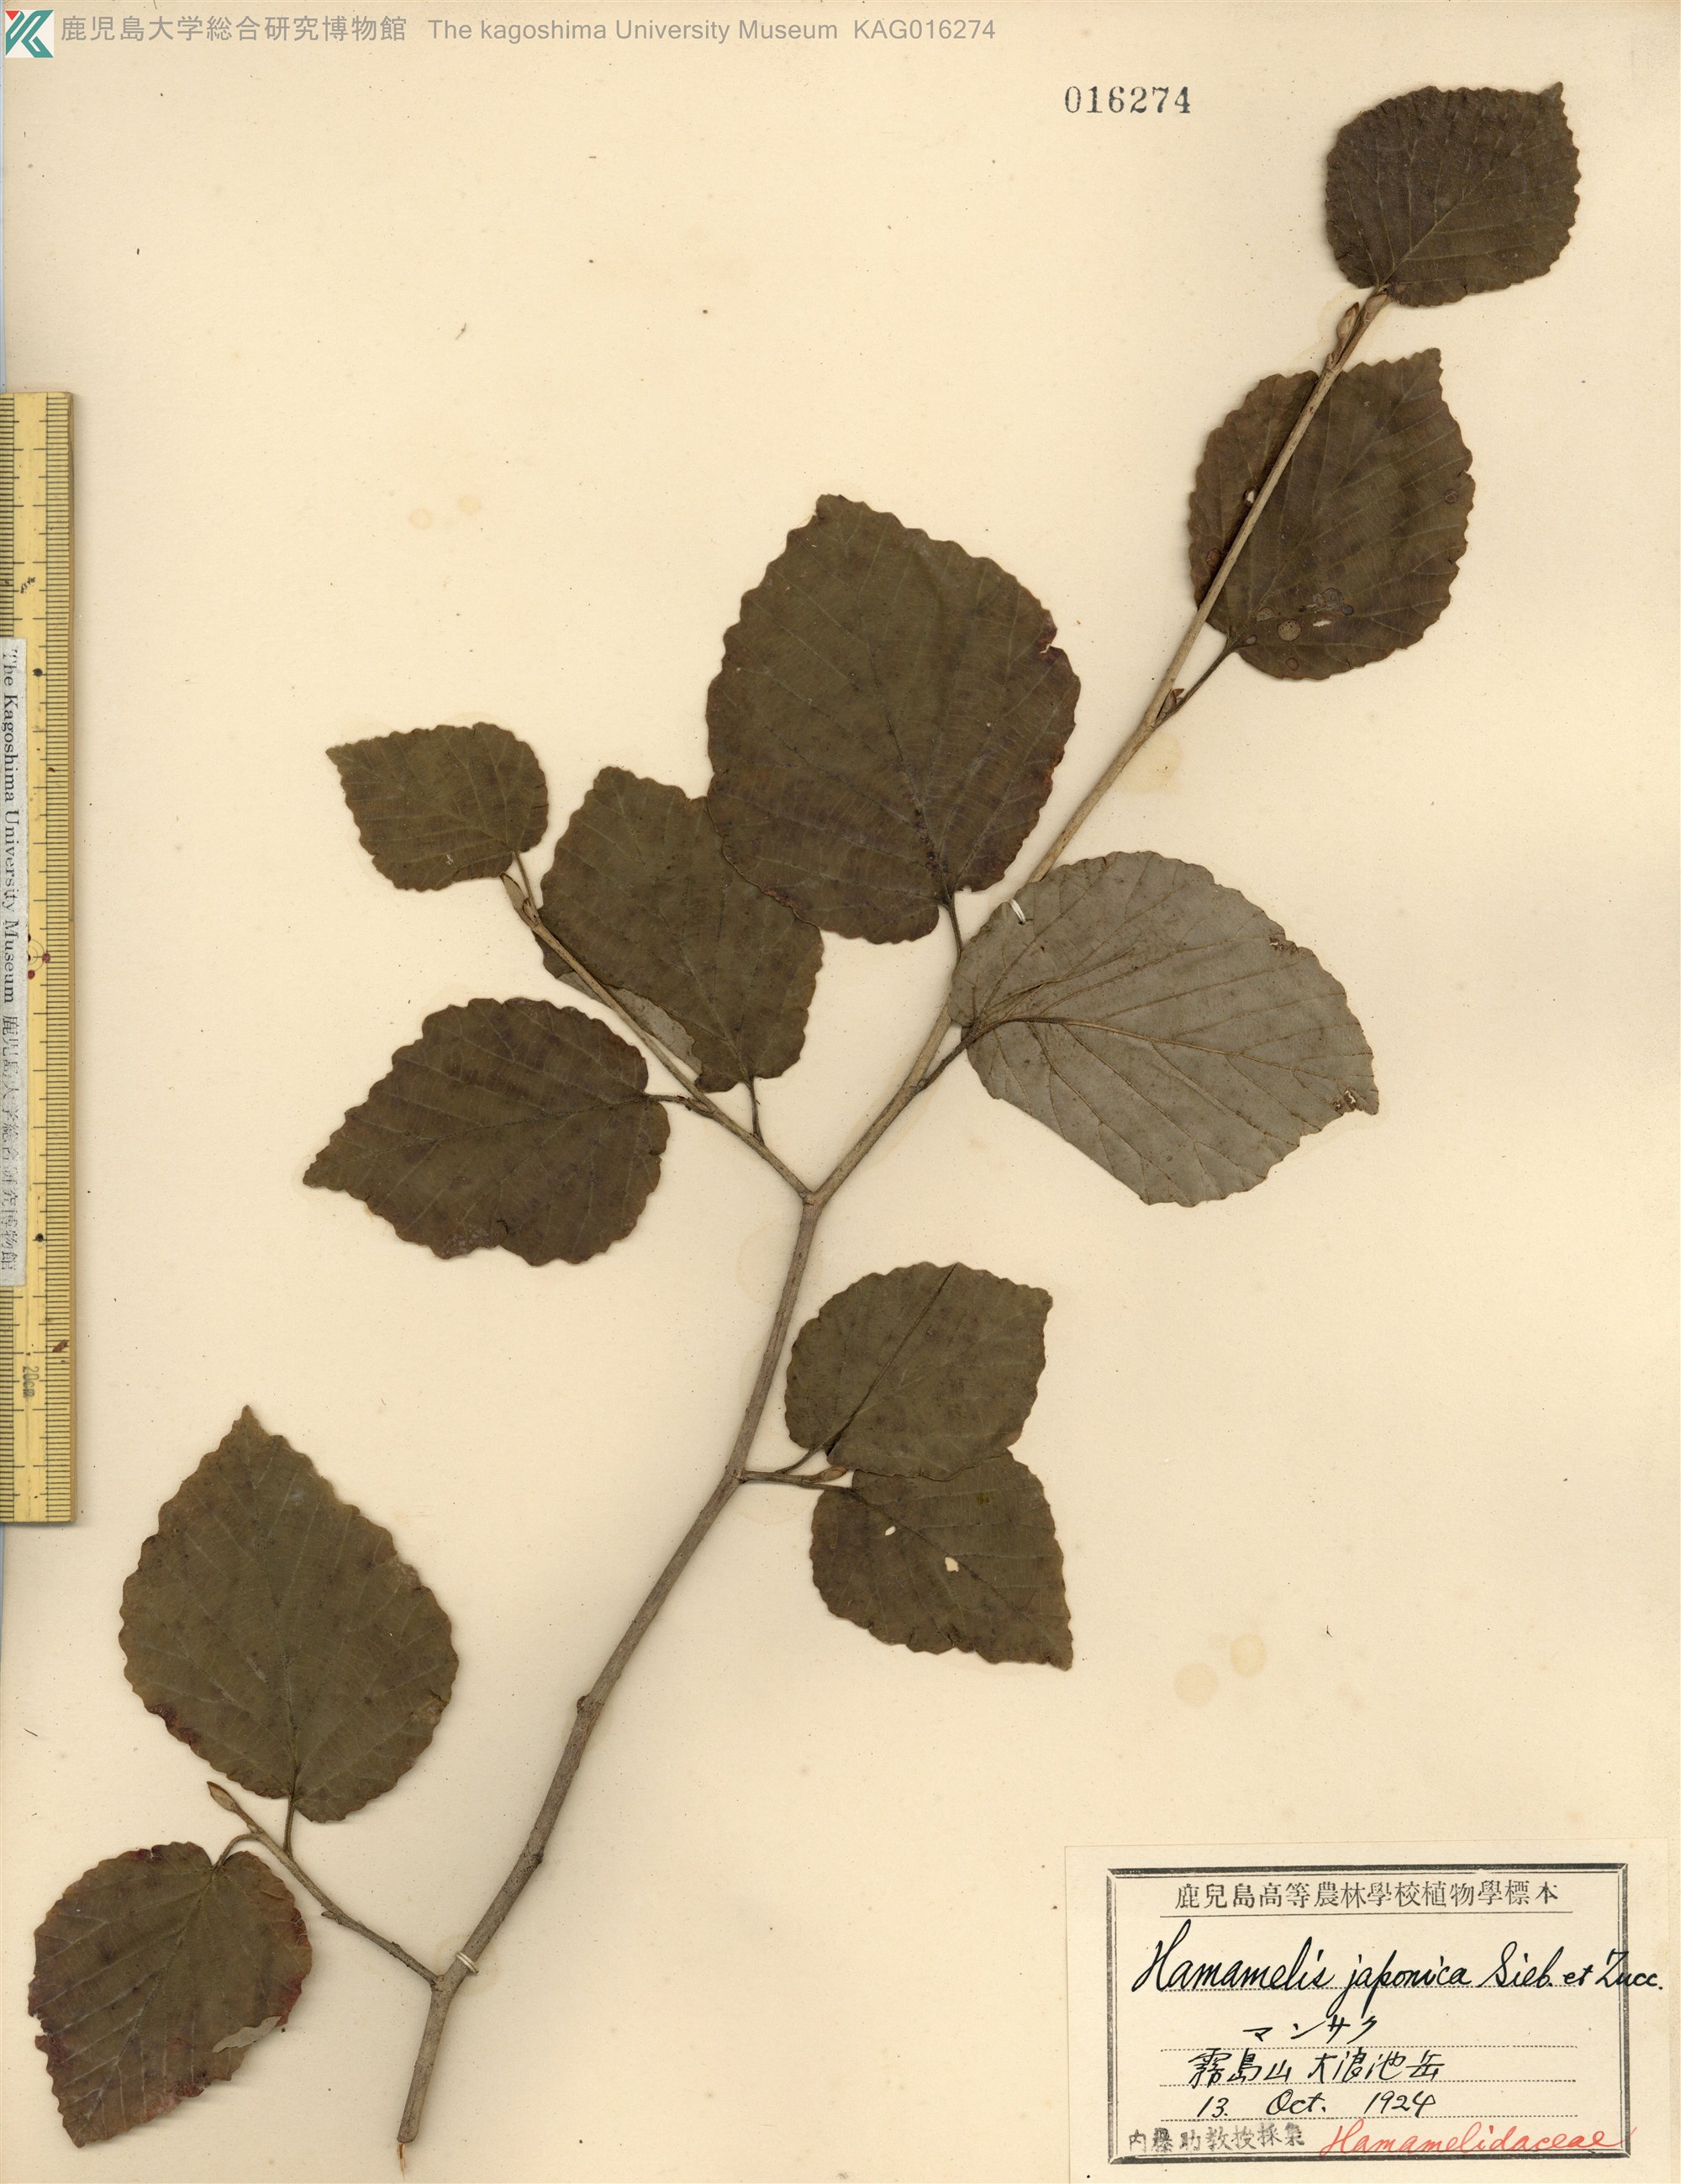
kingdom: Plantae
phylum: Tracheophyta
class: Magnoliopsida
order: Saxifragales
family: Hamamelidaceae
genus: Hamamelis
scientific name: Hamamelis japonica
